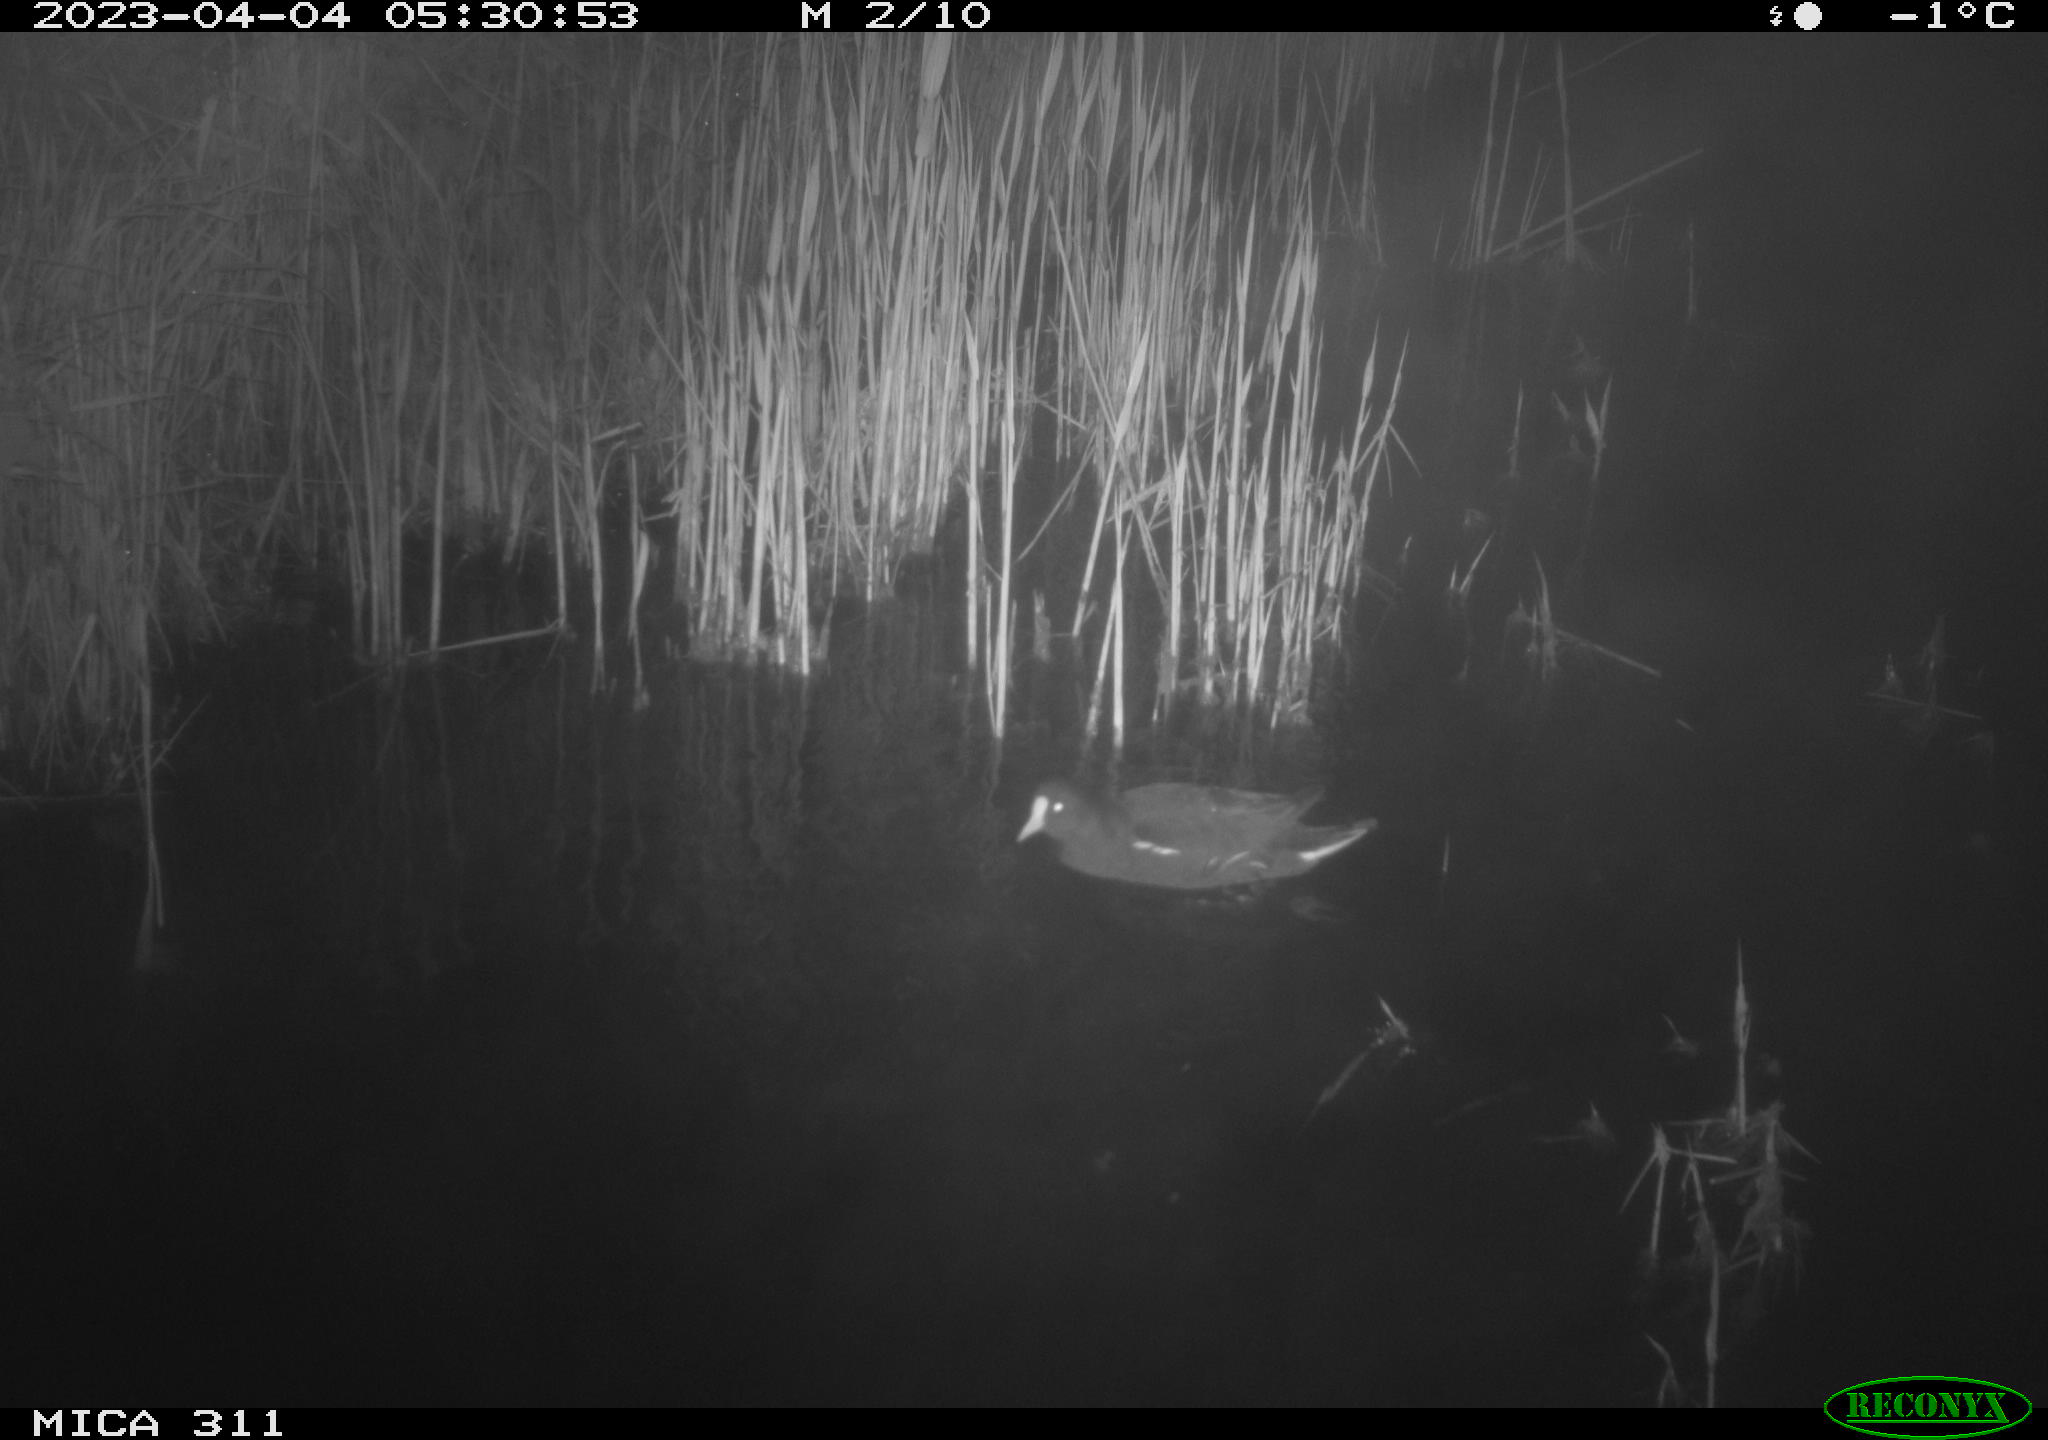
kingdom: Animalia
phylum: Chordata
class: Aves
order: Gruiformes
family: Rallidae
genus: Gallinula
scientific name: Gallinula chloropus
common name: Common moorhen
